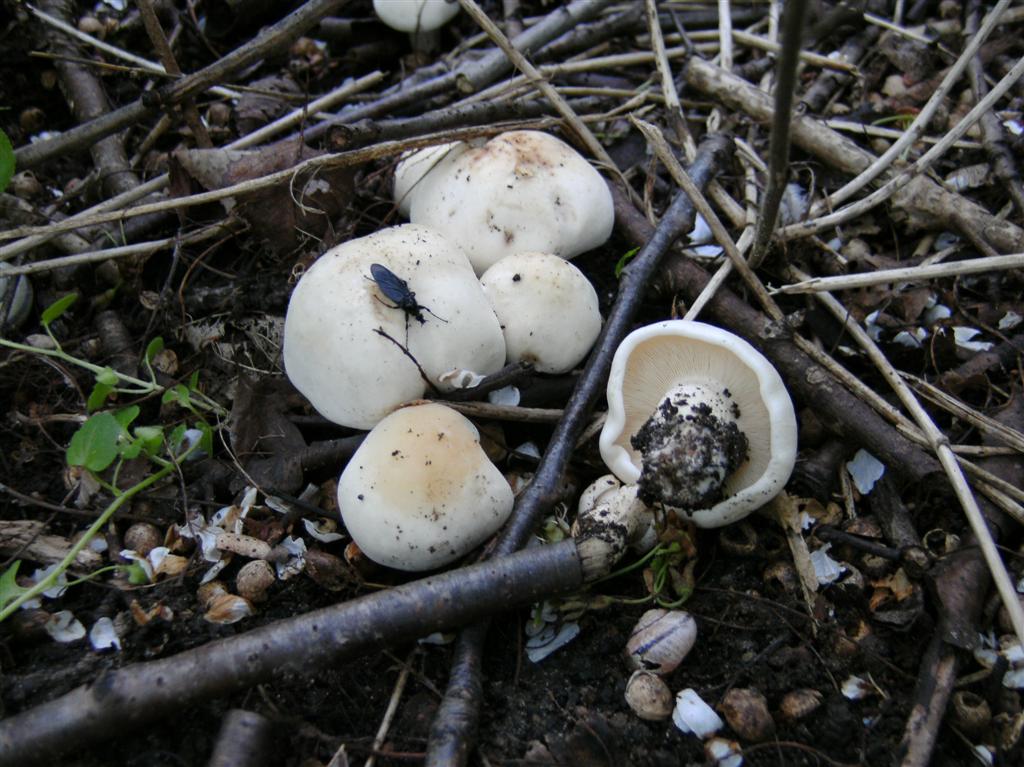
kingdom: Fungi
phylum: Basidiomycota
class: Agaricomycetes
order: Agaricales
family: Lyophyllaceae
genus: Calocybe
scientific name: Calocybe gambosa
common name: vårmusseron
